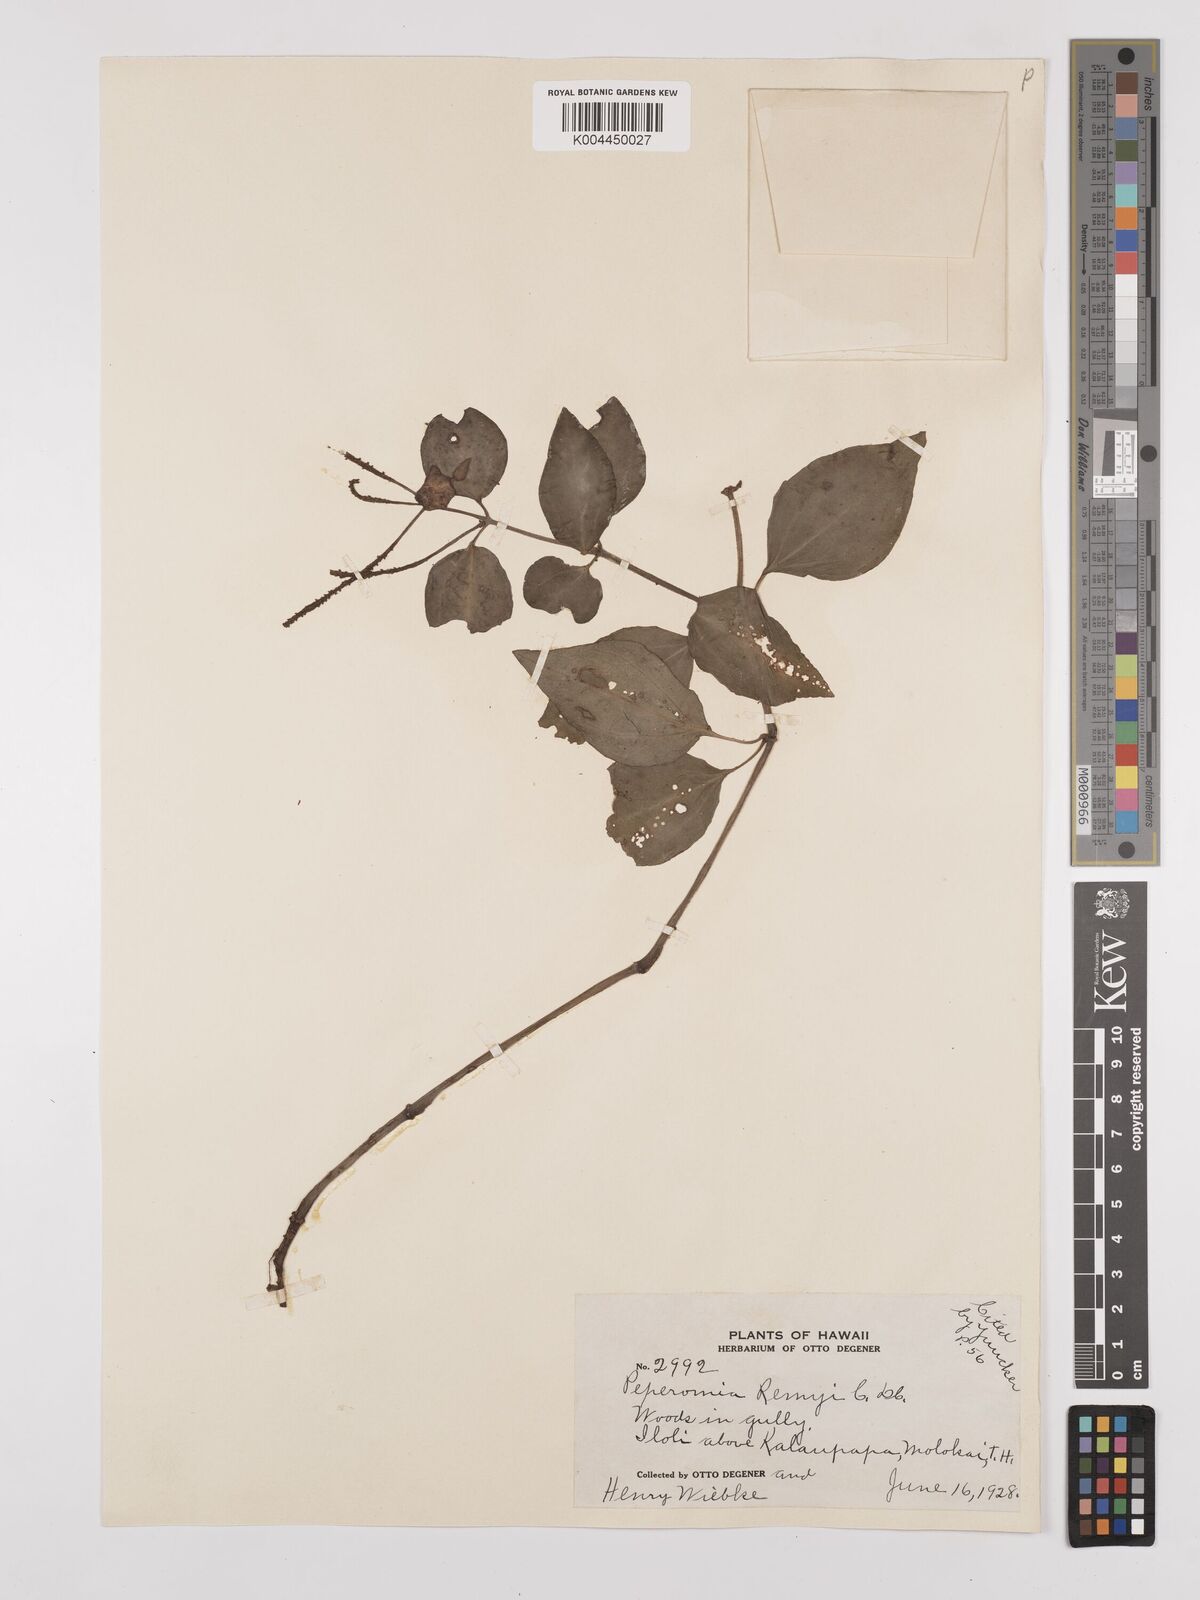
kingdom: Plantae
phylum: Tracheophyta
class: Magnoliopsida
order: Piperales
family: Piperaceae
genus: Peperomia
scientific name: Peperomia remyi
